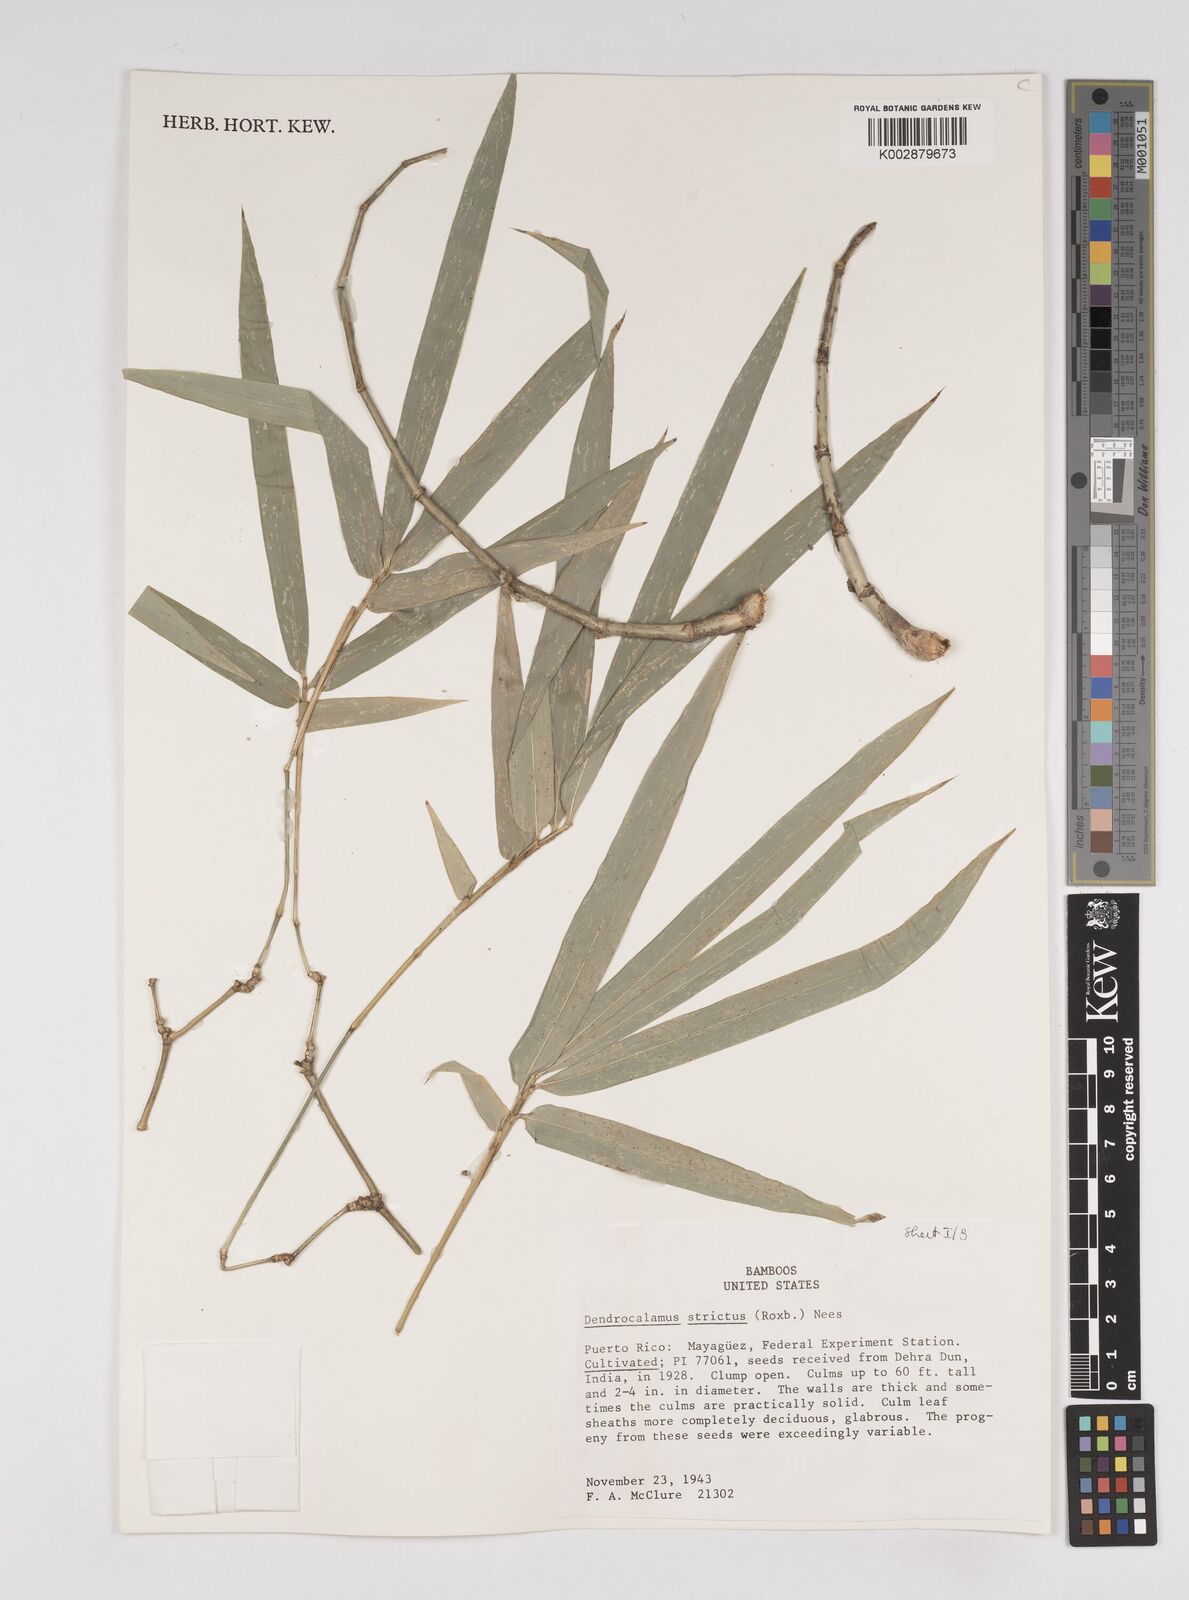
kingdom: Plantae
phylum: Tracheophyta
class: Liliopsida
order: Poales
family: Poaceae
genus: Dendrocalamus
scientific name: Dendrocalamus strictus
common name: Male bamboo
